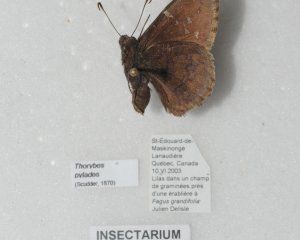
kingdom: Animalia
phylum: Arthropoda
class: Insecta
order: Lepidoptera
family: Hesperiidae
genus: Autochton
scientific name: Autochton
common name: Northern Cloudywing
